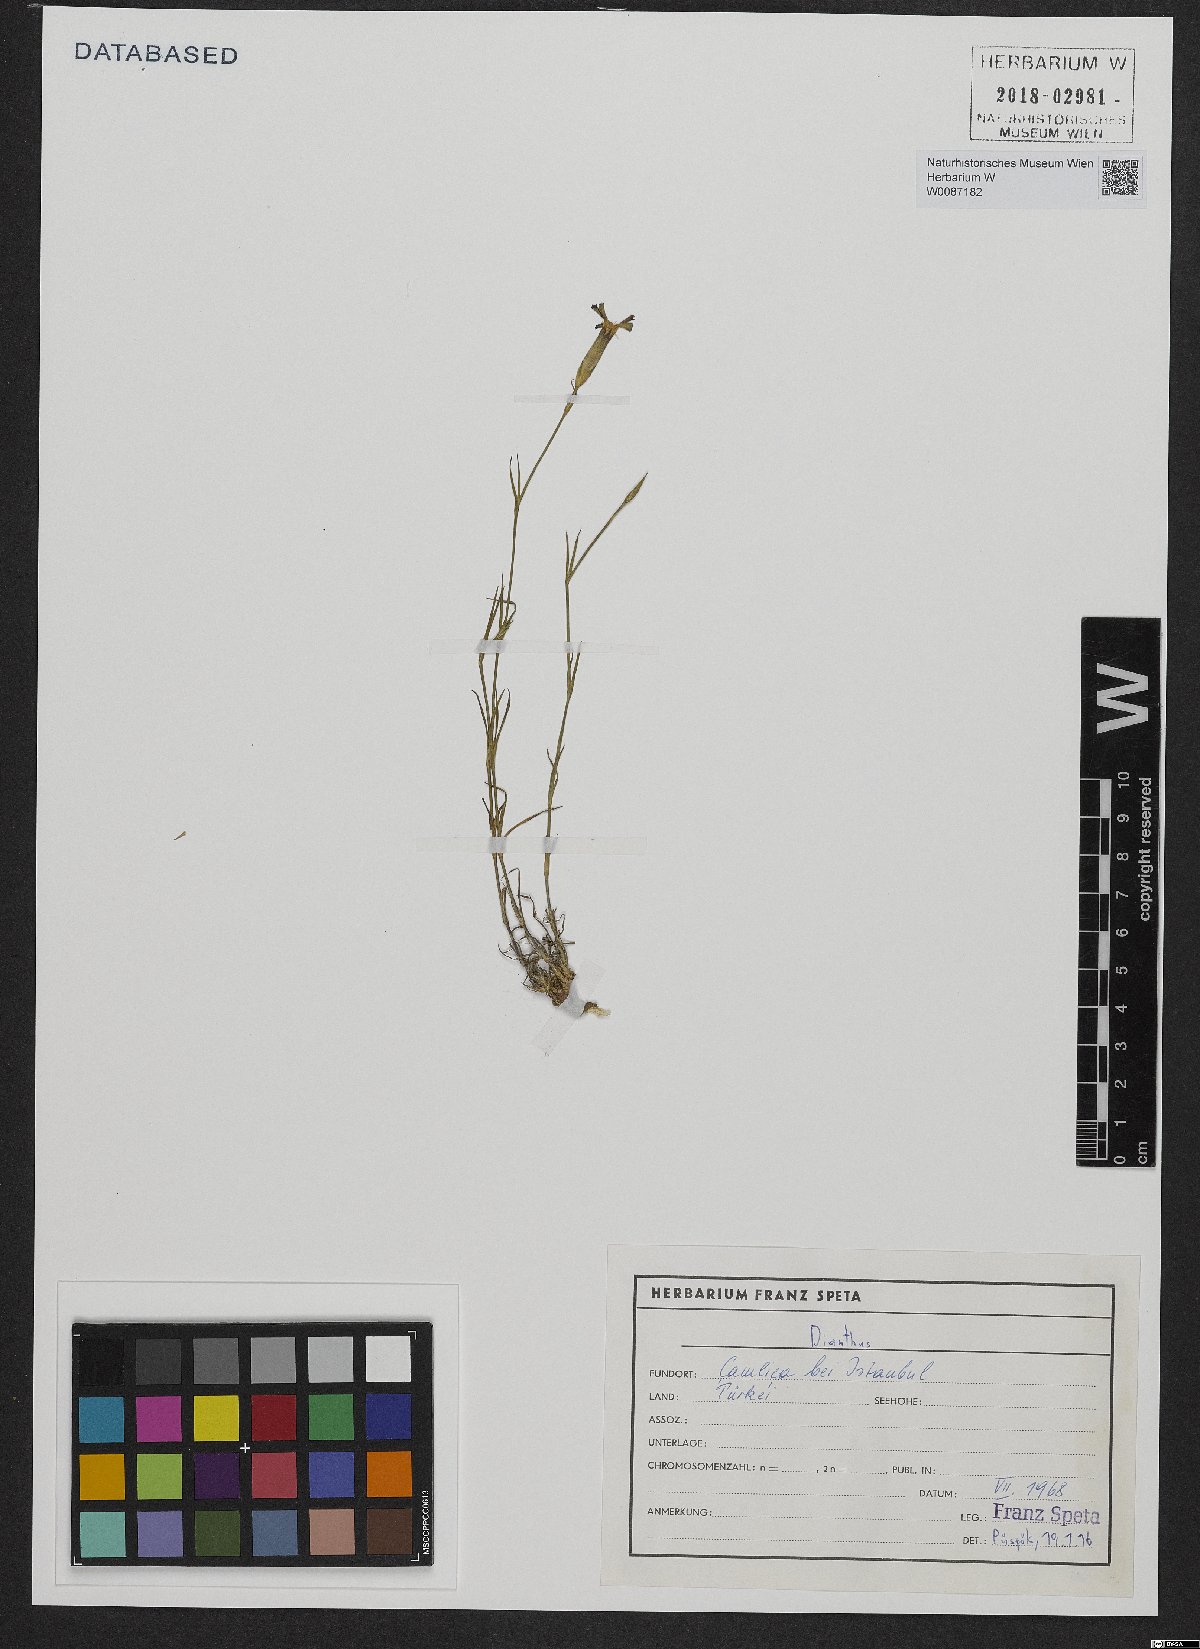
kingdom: Plantae
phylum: Tracheophyta
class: Magnoliopsida
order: Caryophyllales
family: Caryophyllaceae
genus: Dianthus
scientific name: Dianthus
